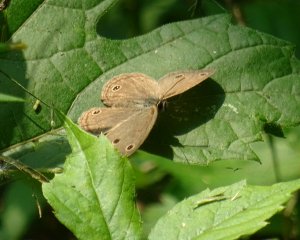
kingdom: Animalia
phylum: Arthropoda
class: Insecta
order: Lepidoptera
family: Nymphalidae
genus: Euptychia
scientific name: Euptychia cymela
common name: Little Wood Satyr
